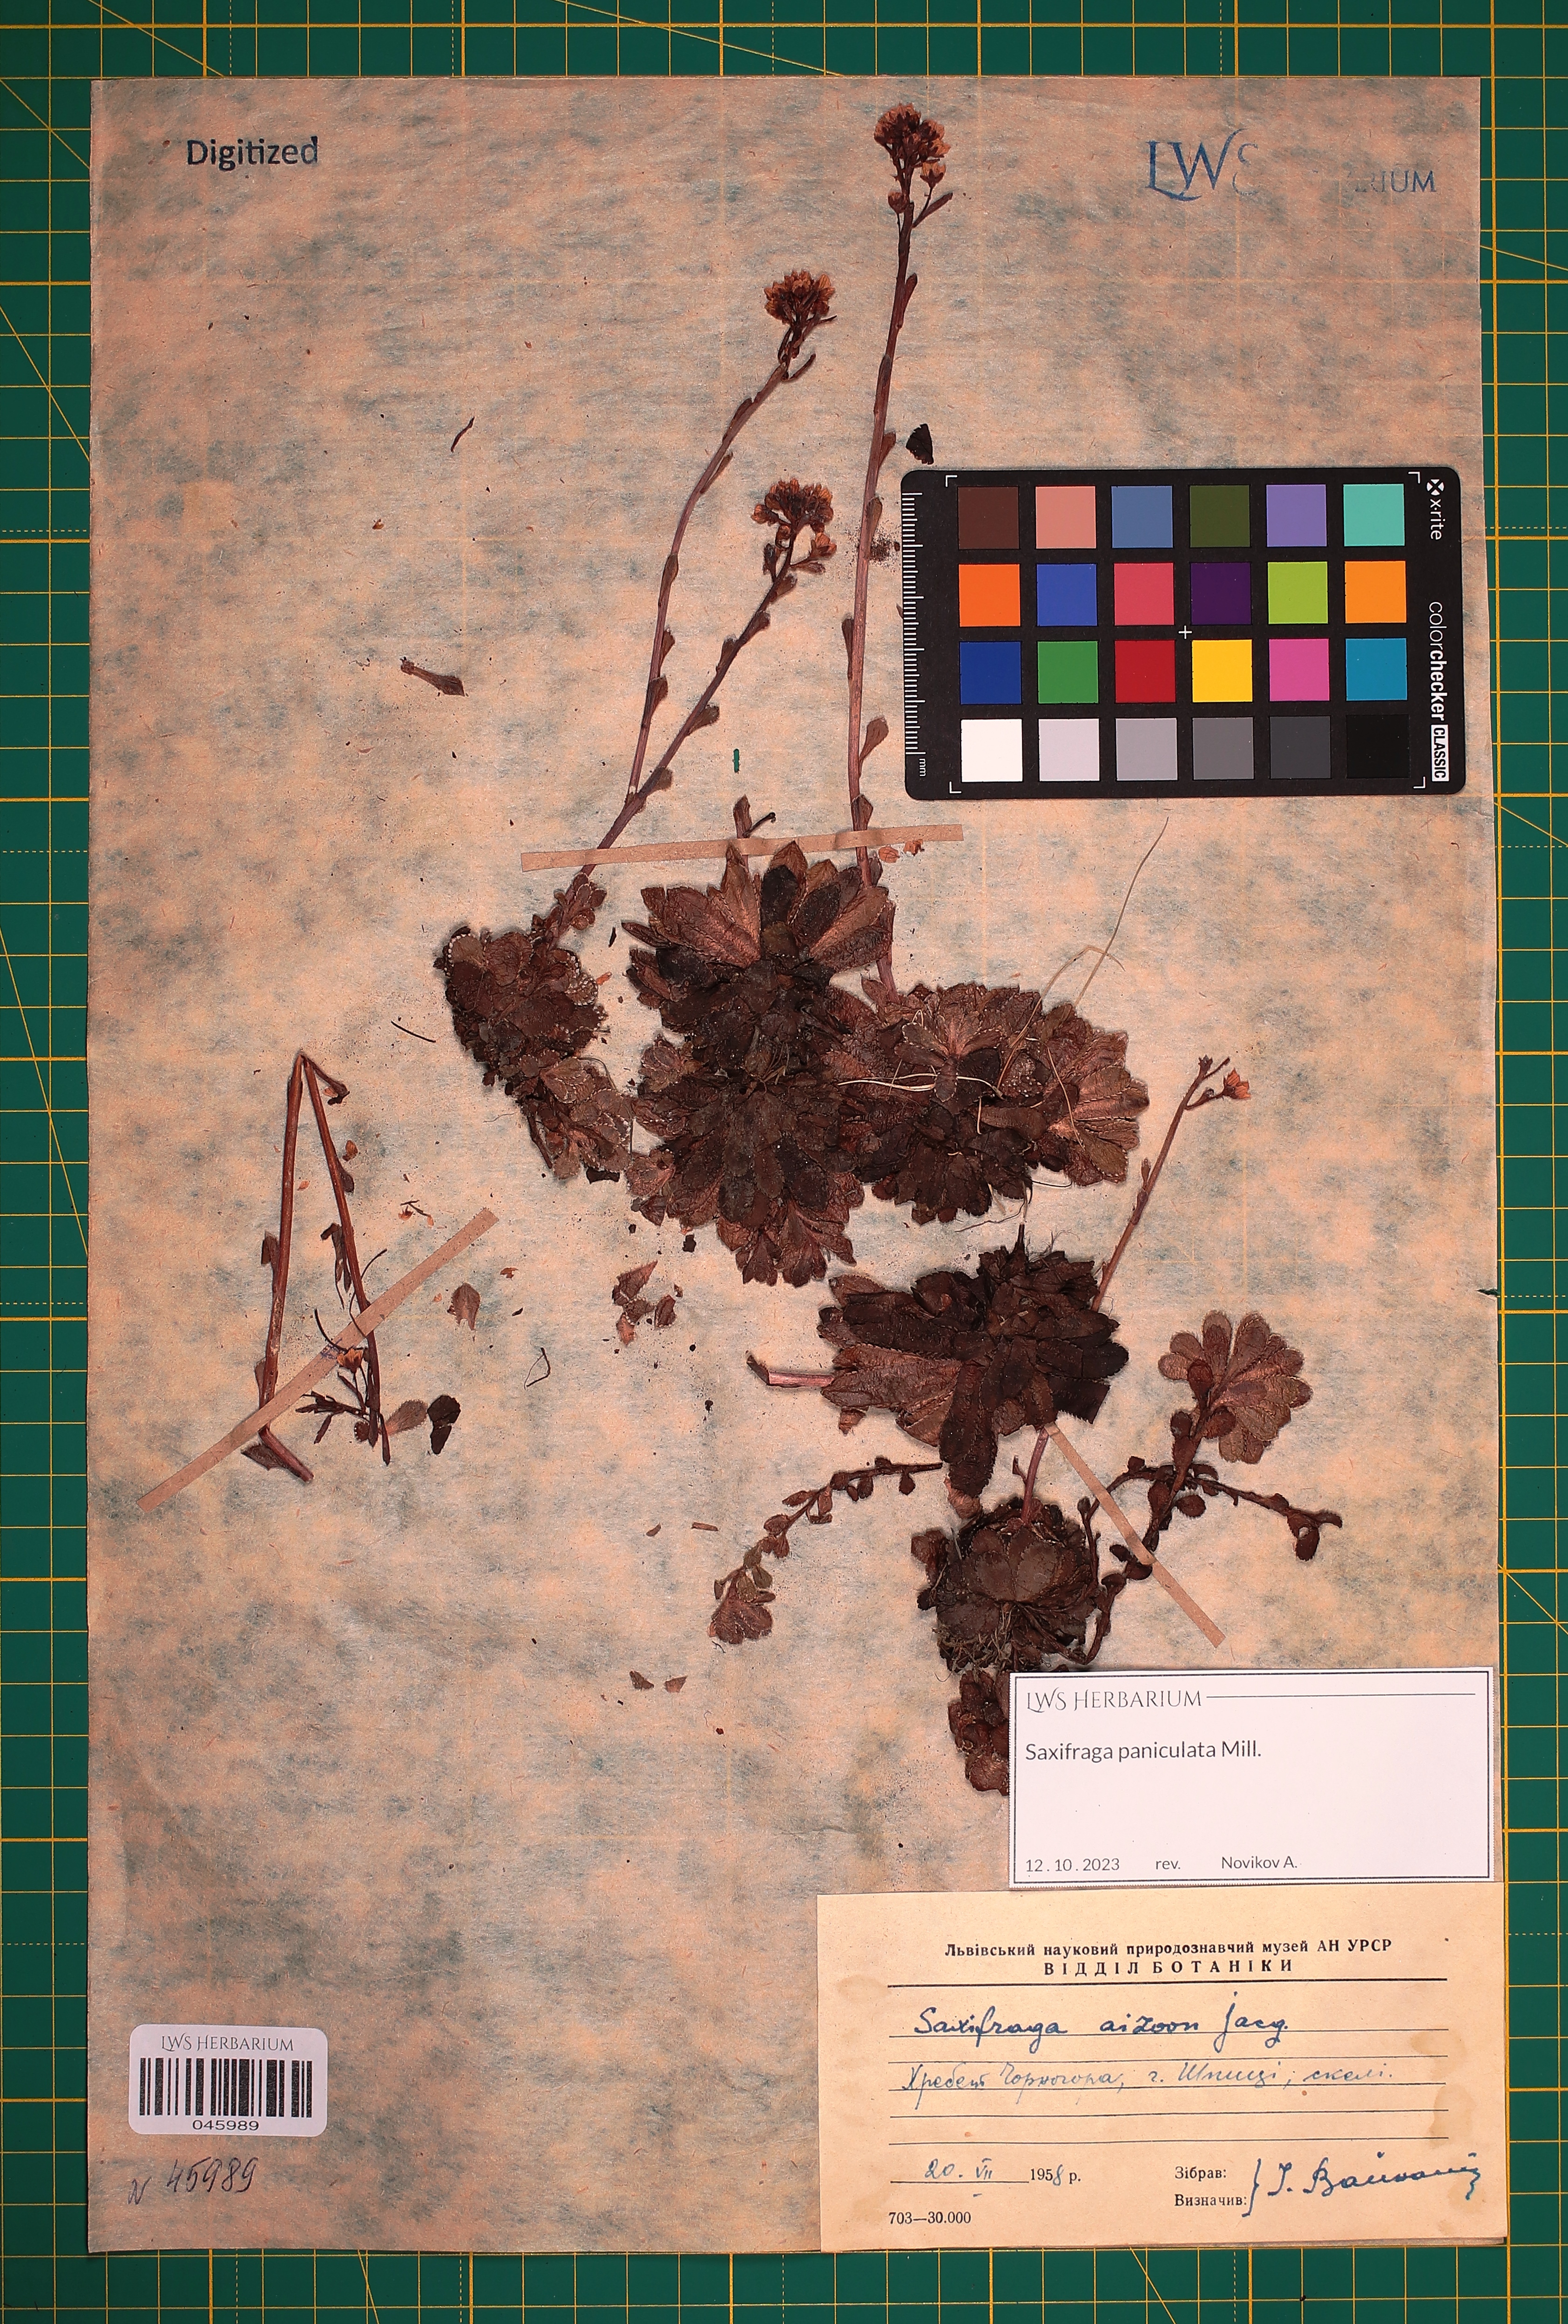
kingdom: Plantae
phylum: Tracheophyta
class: Magnoliopsida
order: Saxifragales
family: Saxifragaceae
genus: Saxifraga
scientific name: Saxifraga paniculata
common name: Livelong saxifrage
